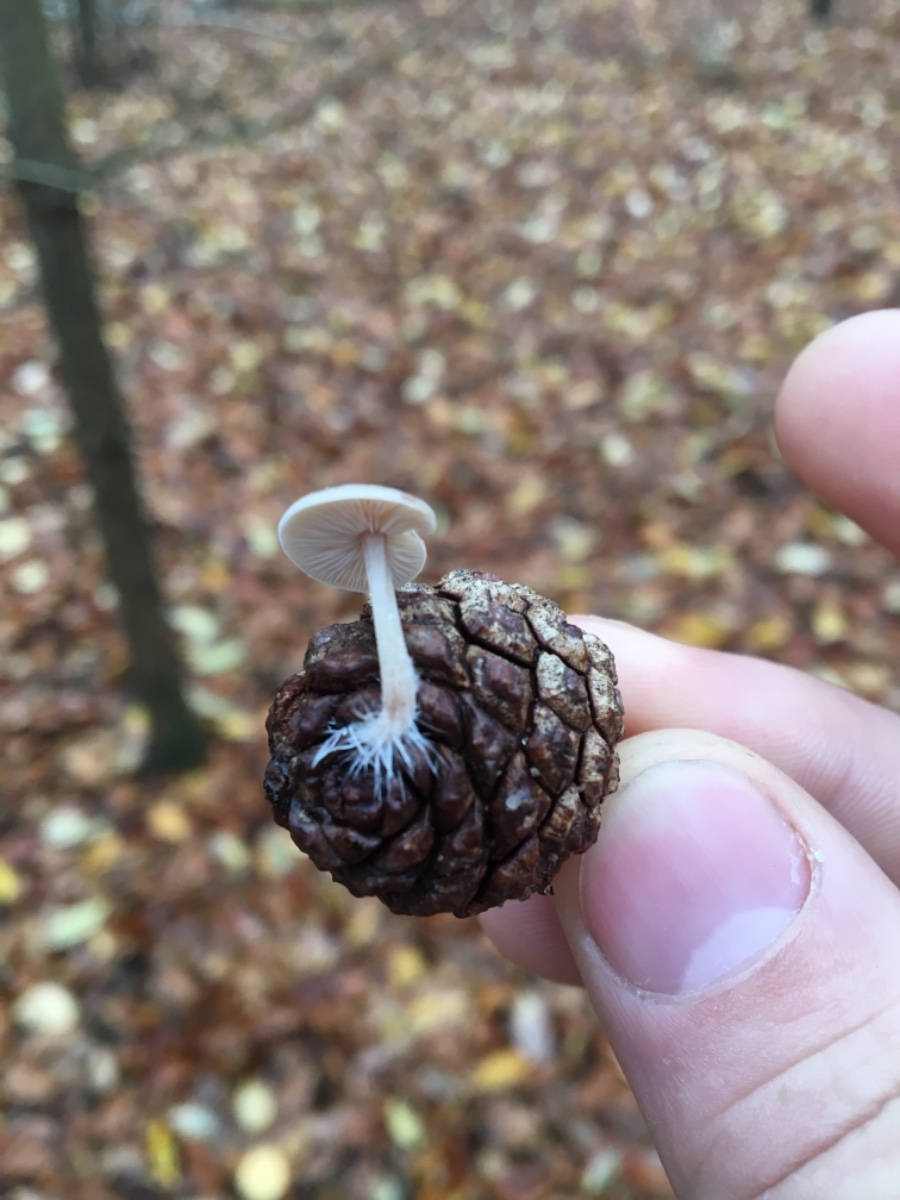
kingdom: Fungi
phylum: Basidiomycota
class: Agaricomycetes
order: Agaricales
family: Marasmiaceae
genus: Baeospora
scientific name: Baeospora myosura
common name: koglebruskhat
